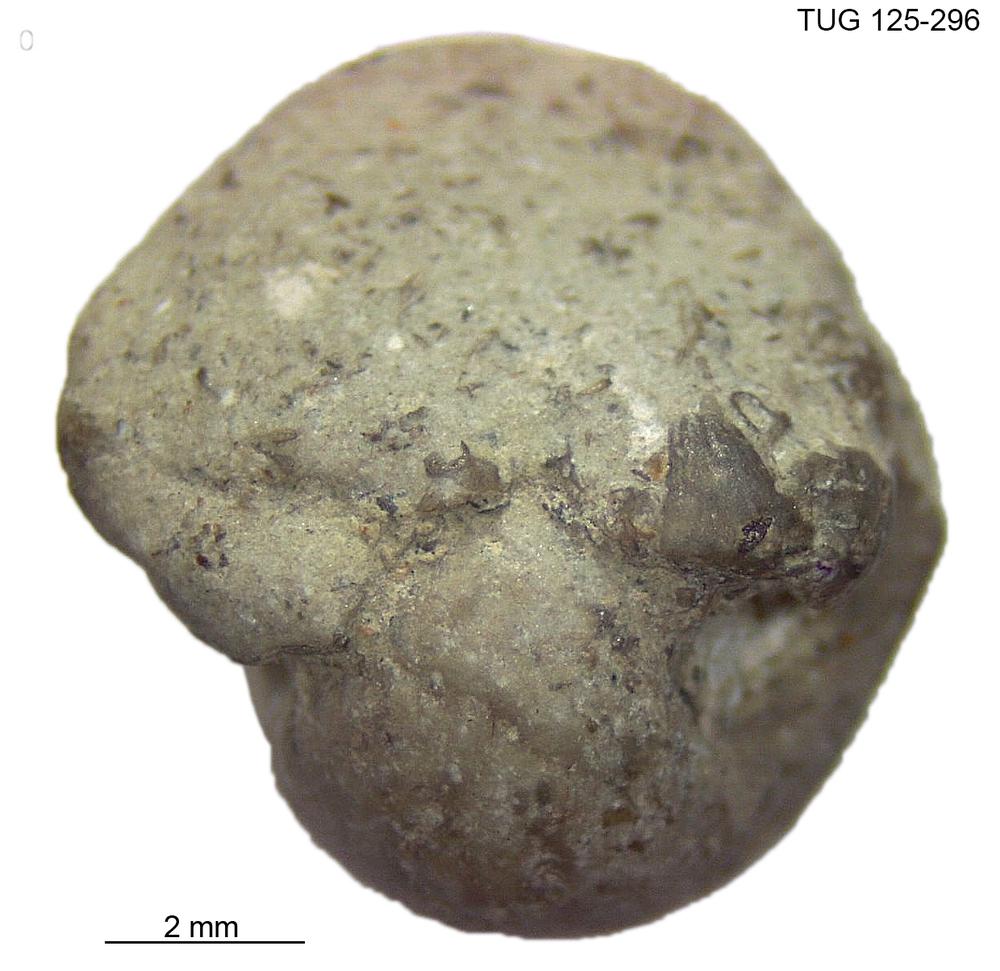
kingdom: Animalia
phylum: Mollusca
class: Gastropoda
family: Bellerophontidae
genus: Bellerophon
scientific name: Bellerophon globulus
